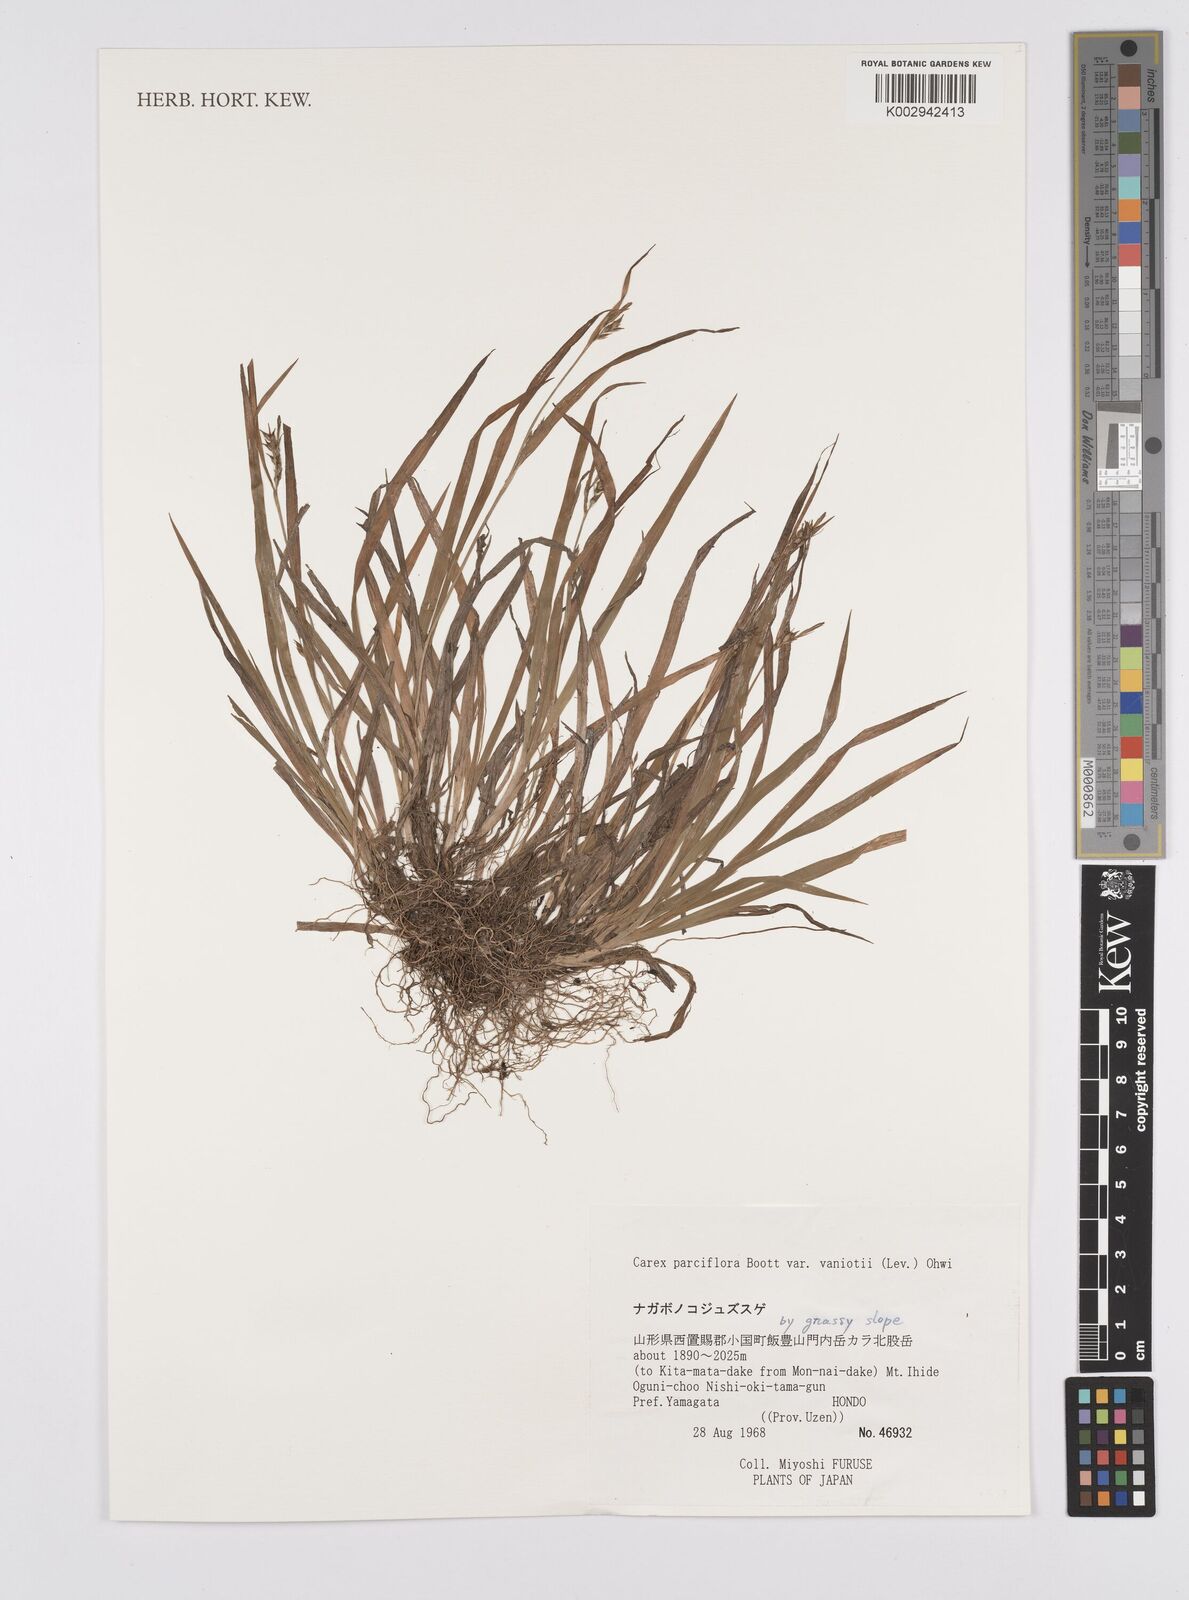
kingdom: Plantae
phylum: Tracheophyta
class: Liliopsida
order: Poales
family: Cyperaceae
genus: Carex
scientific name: Carex parciflora
